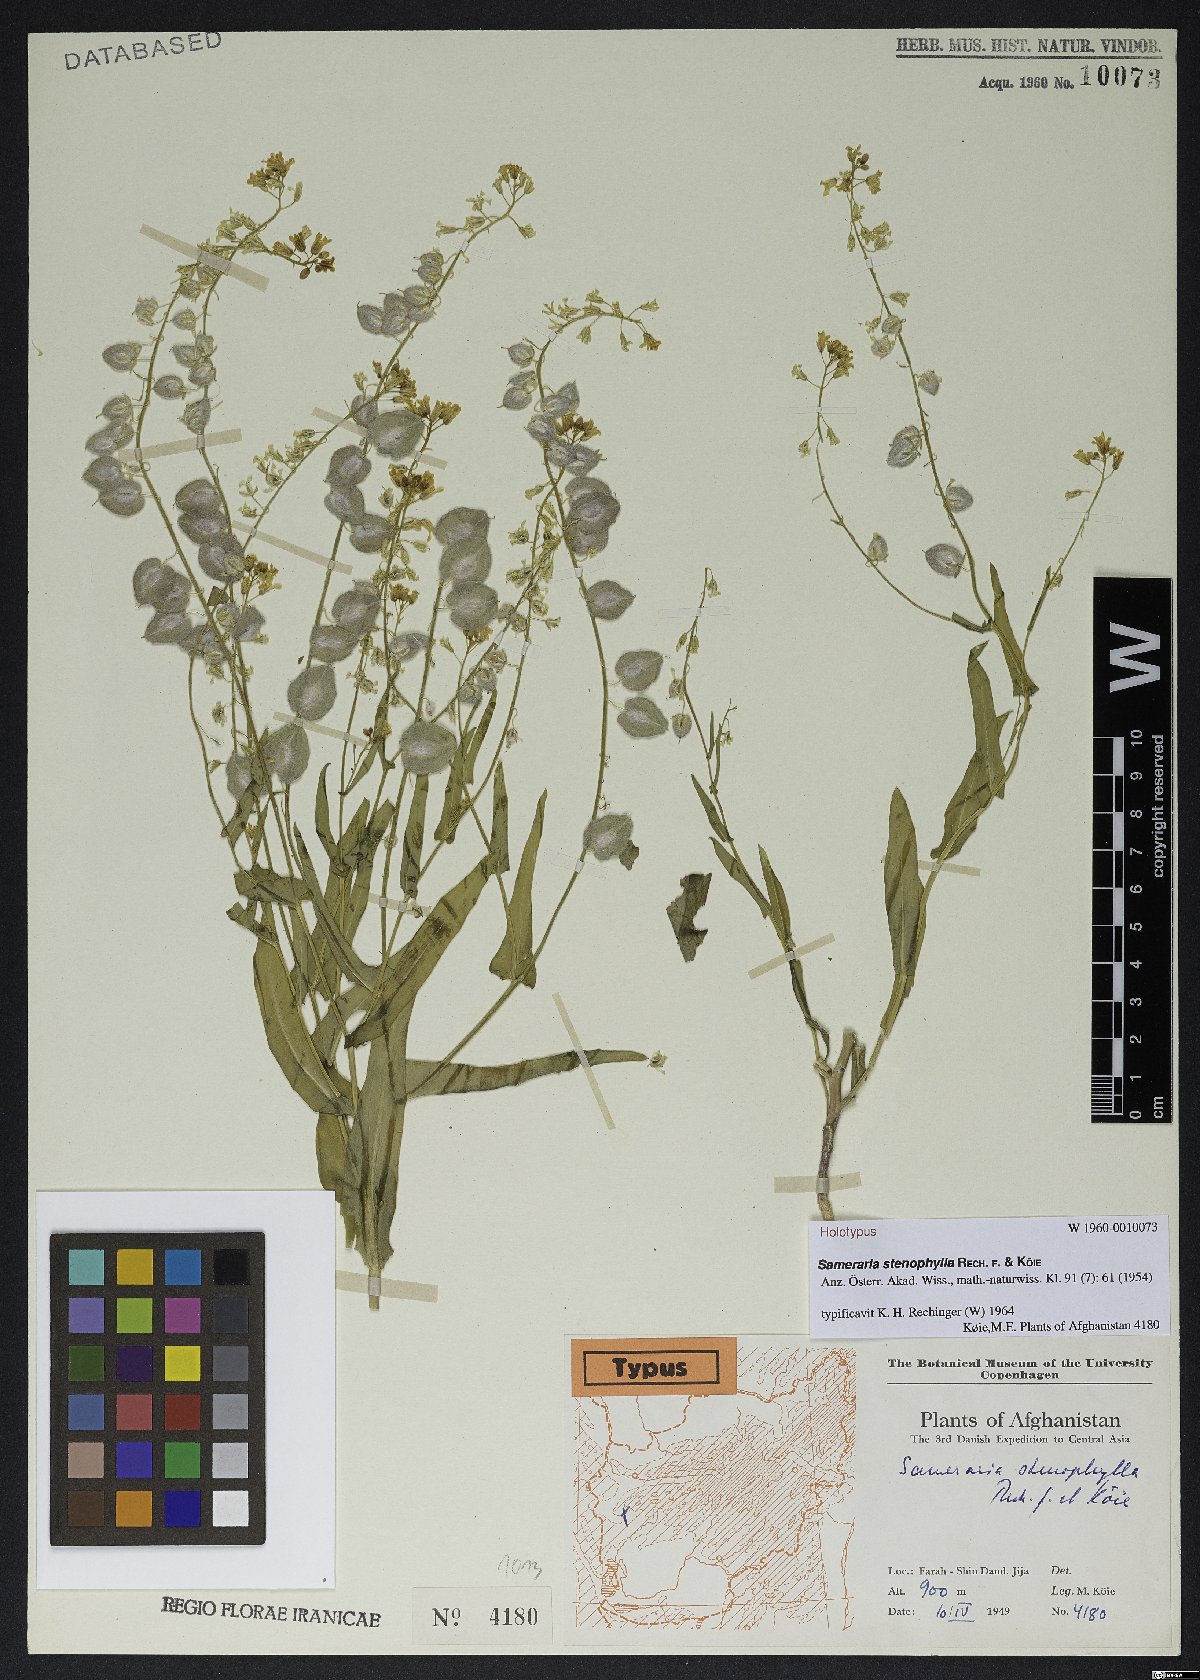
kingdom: Plantae
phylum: Tracheophyta
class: Magnoliopsida
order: Brassicales
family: Brassicaceae
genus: Isatis
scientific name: Isatis elegans
